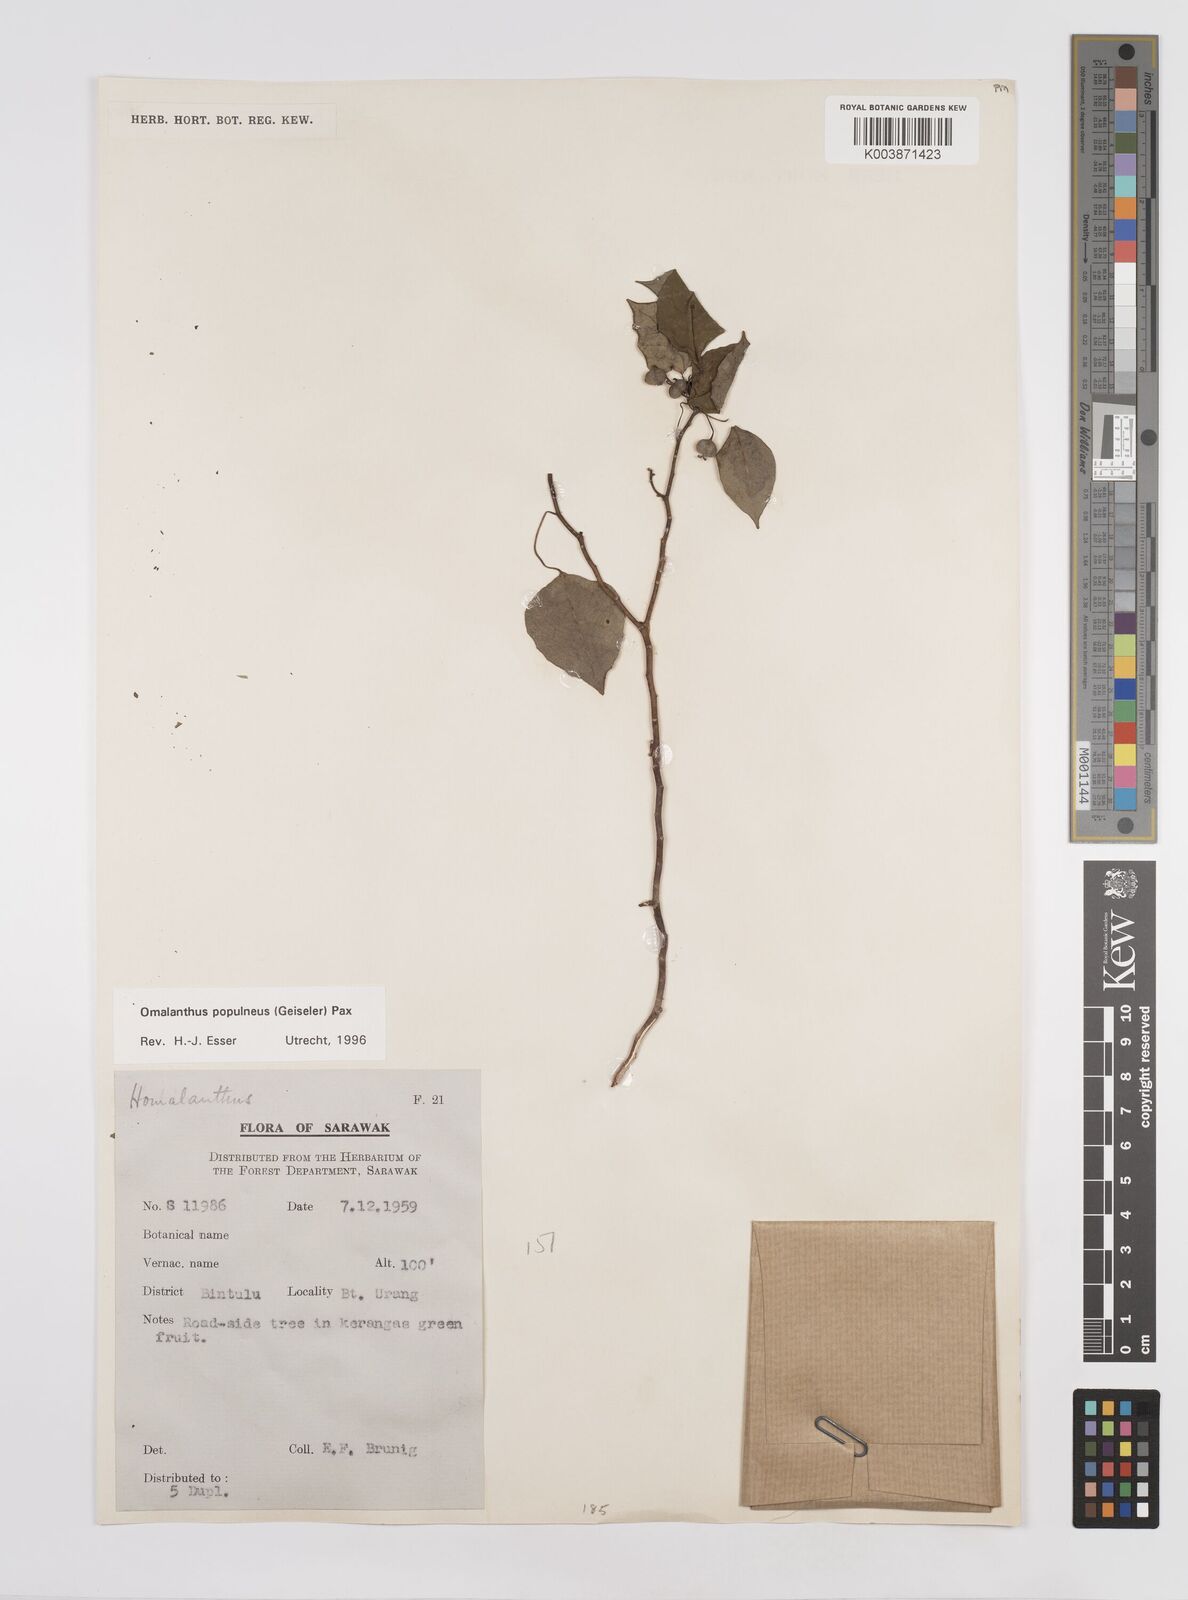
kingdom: Plantae
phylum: Tracheophyta
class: Magnoliopsida
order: Malpighiales
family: Euphorbiaceae
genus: Homalanthus
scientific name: Homalanthus populneus
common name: Spurge
